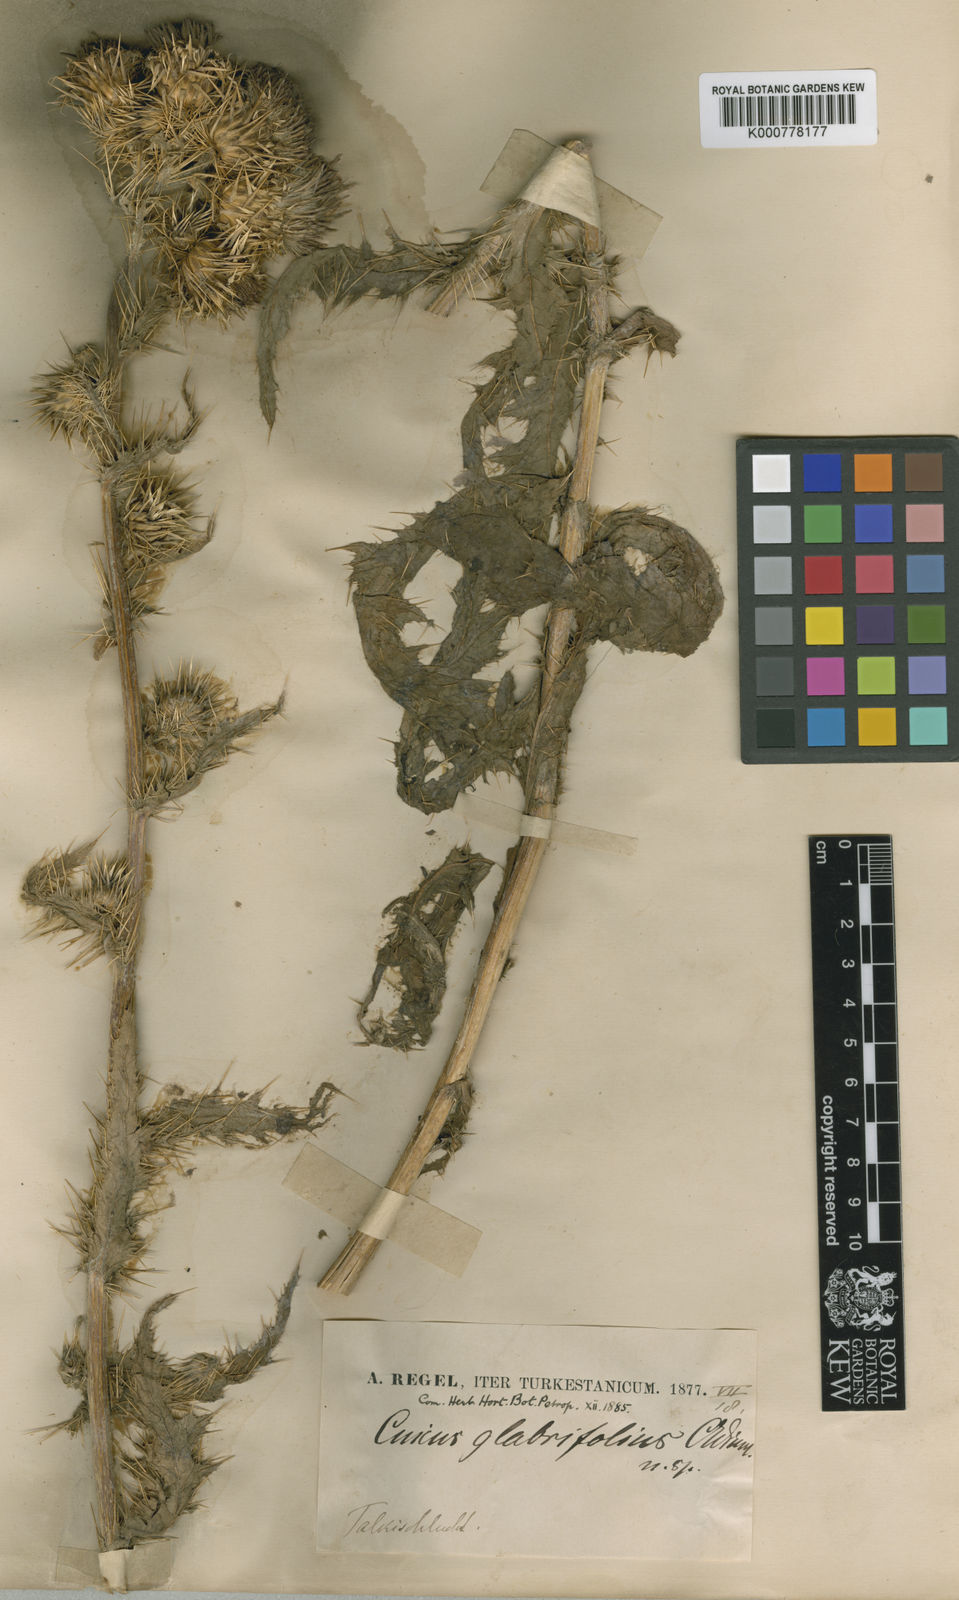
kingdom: Plantae
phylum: Tracheophyta
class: Magnoliopsida
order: Asterales
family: Asteraceae
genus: Cirsium
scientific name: Cirsium
